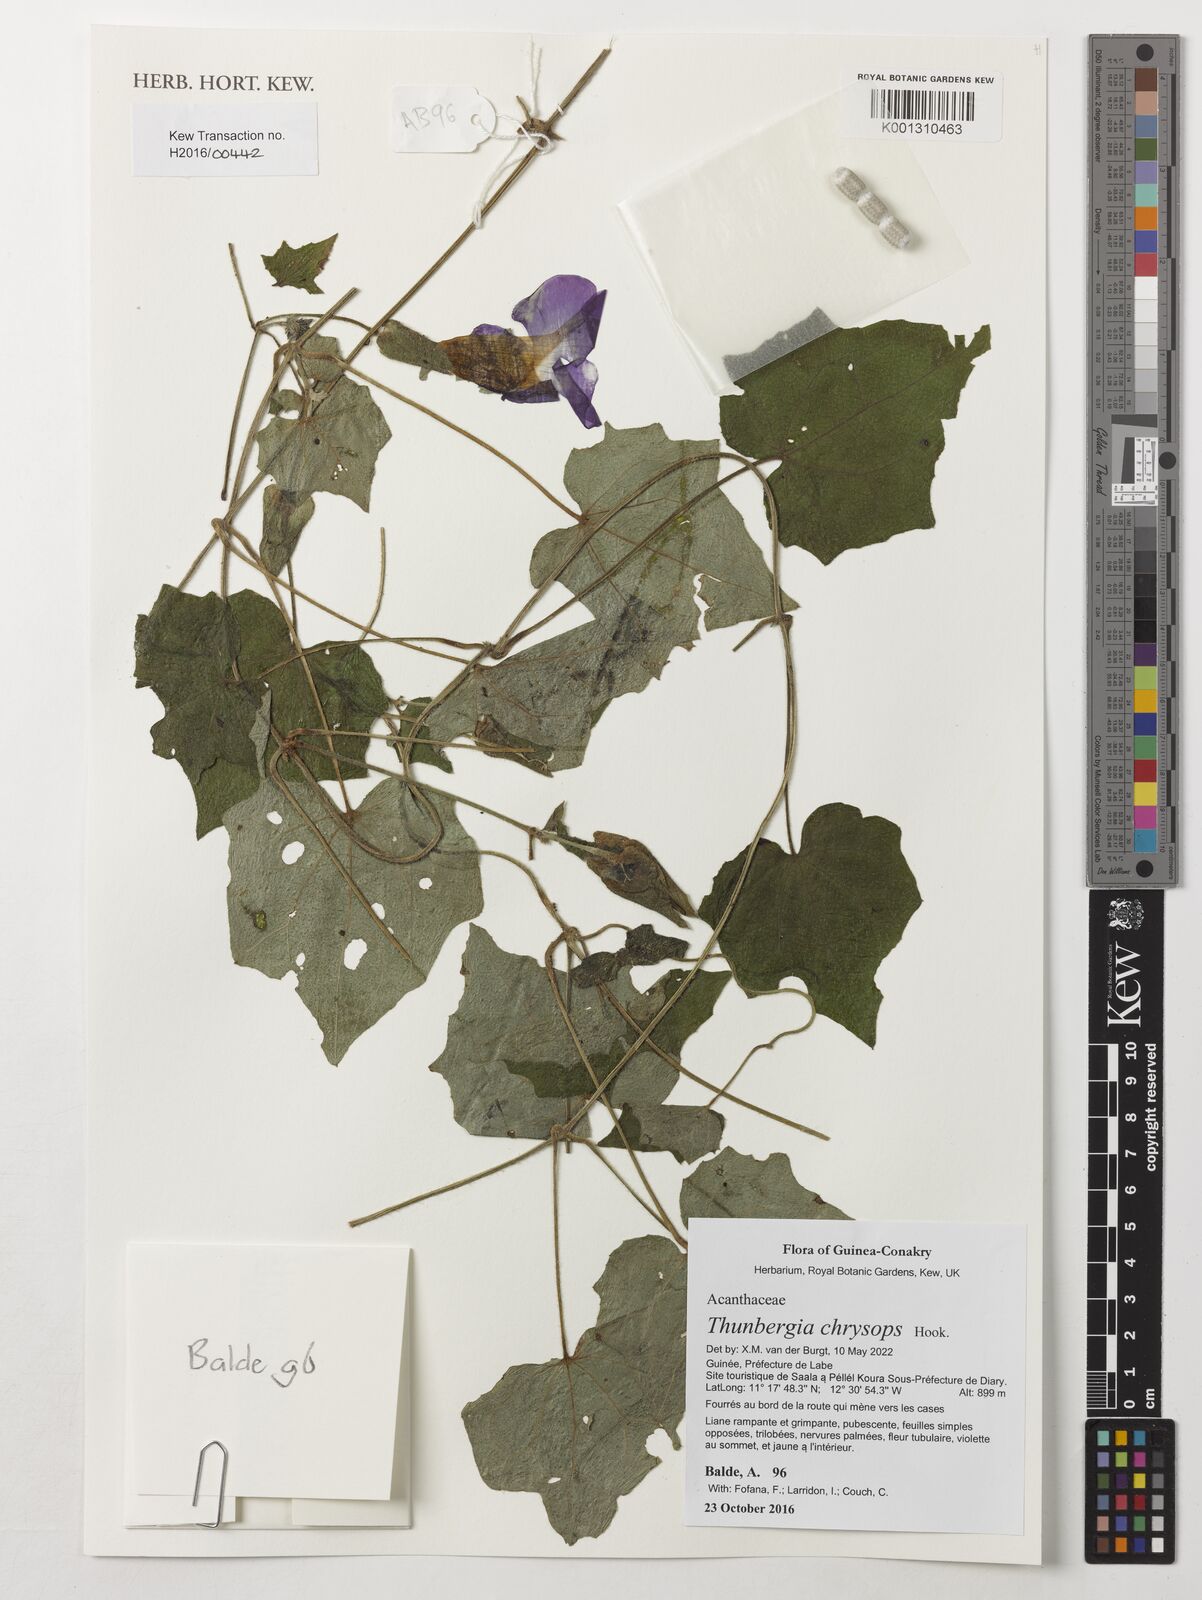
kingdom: Plantae
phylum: Tracheophyta
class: Magnoliopsida
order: Lamiales
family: Acanthaceae
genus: Thunbergia
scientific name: Thunbergia chrysops
